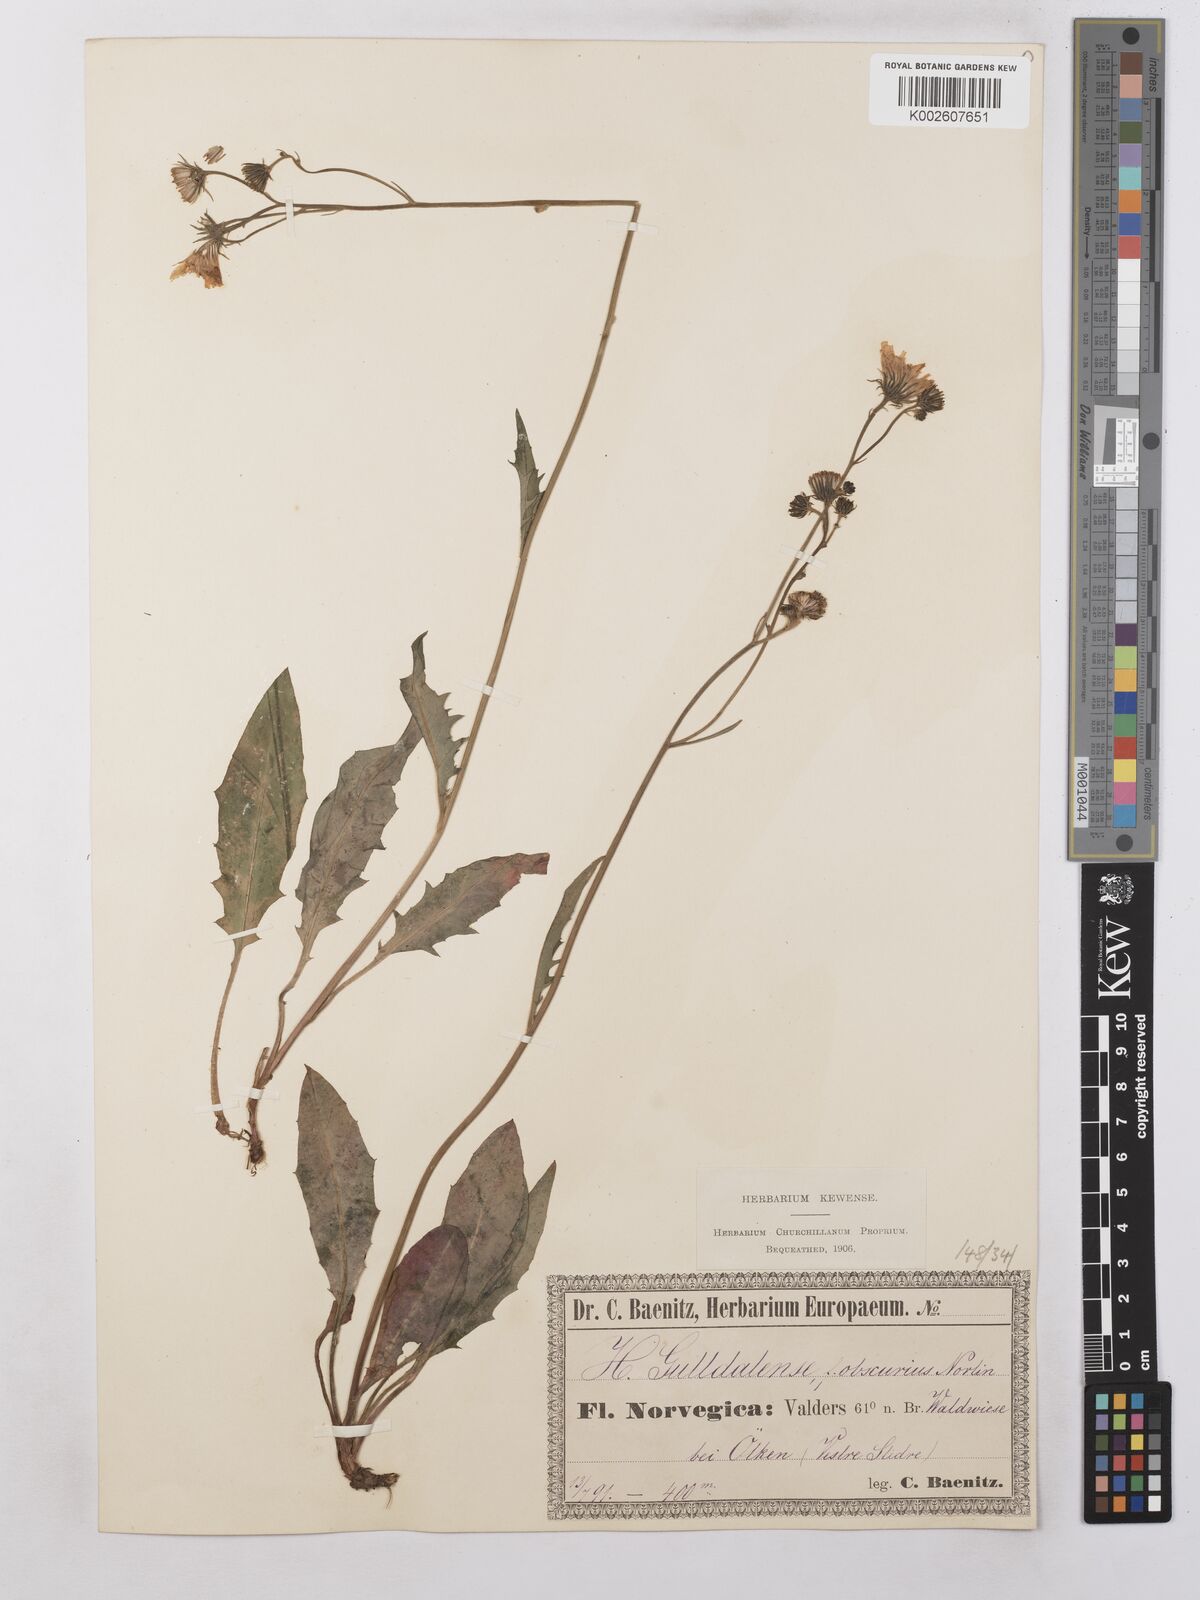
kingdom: Plantae
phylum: Tracheophyta
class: Magnoliopsida
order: Asterales
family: Asteraceae
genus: Hieracium
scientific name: Hieracium subramosum
